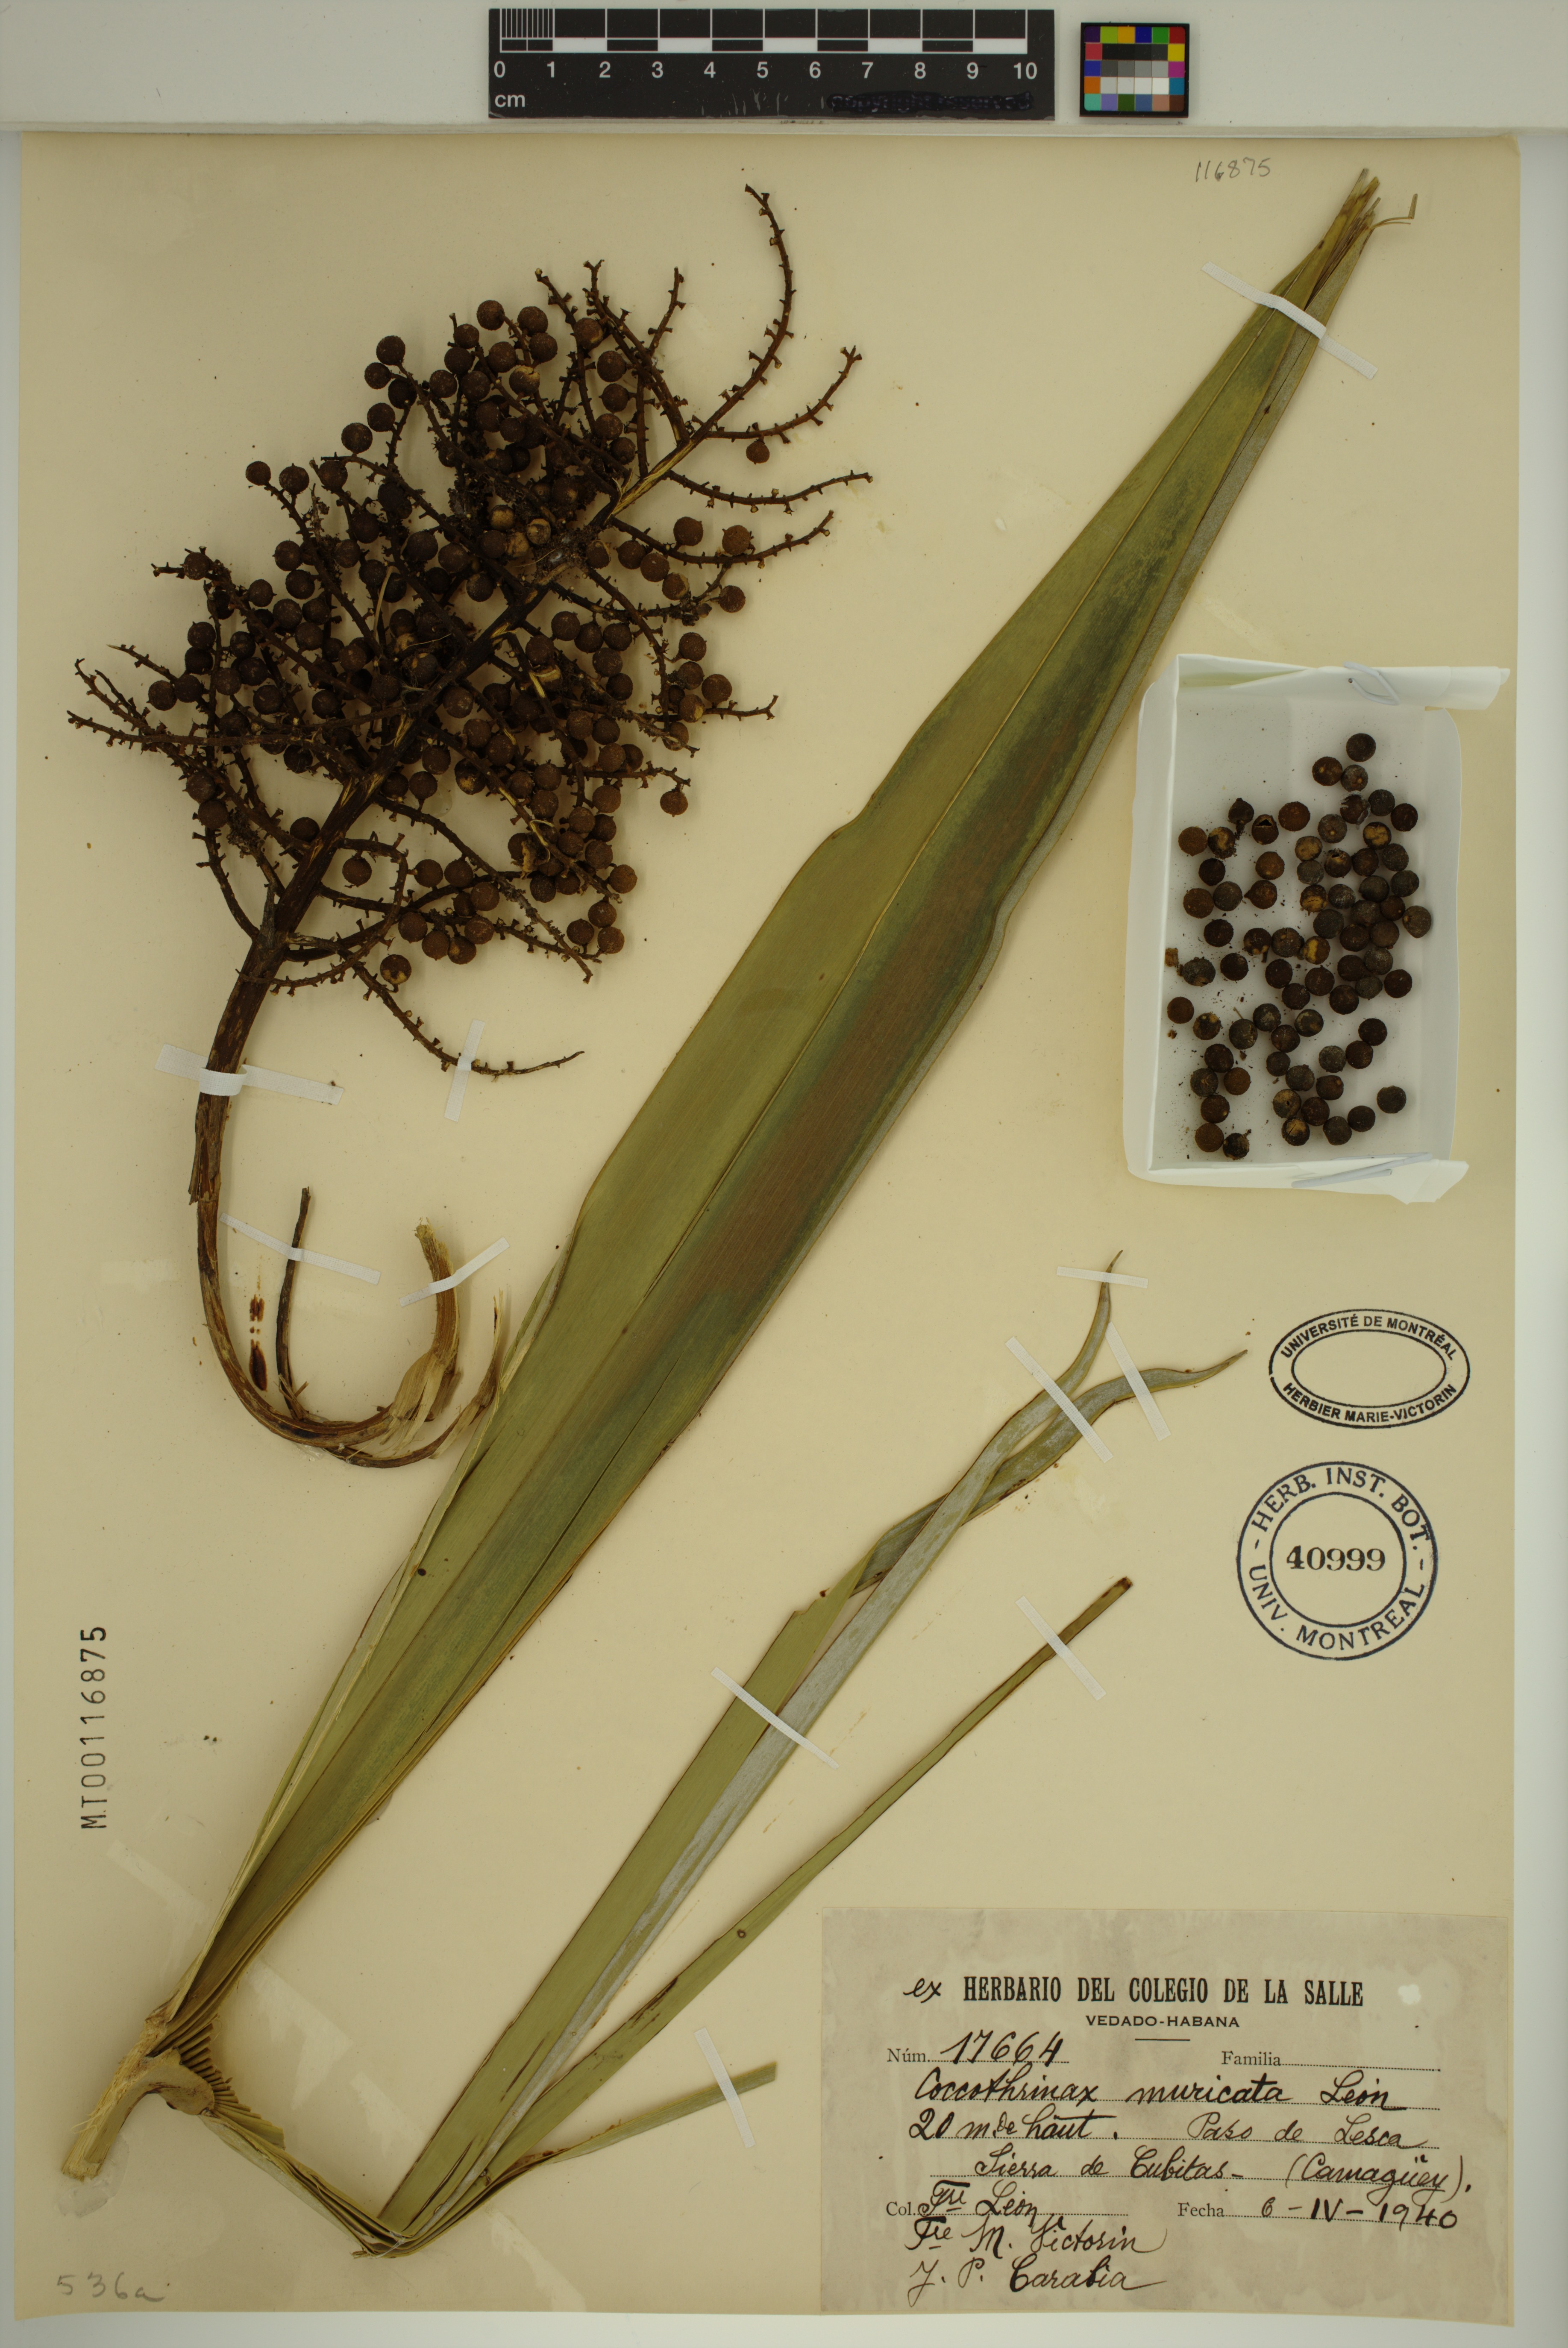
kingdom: Plantae
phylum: Tracheophyta
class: Liliopsida
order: Arecales
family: Arecaceae
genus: Coccothrinax
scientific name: Coccothrinax muricata
